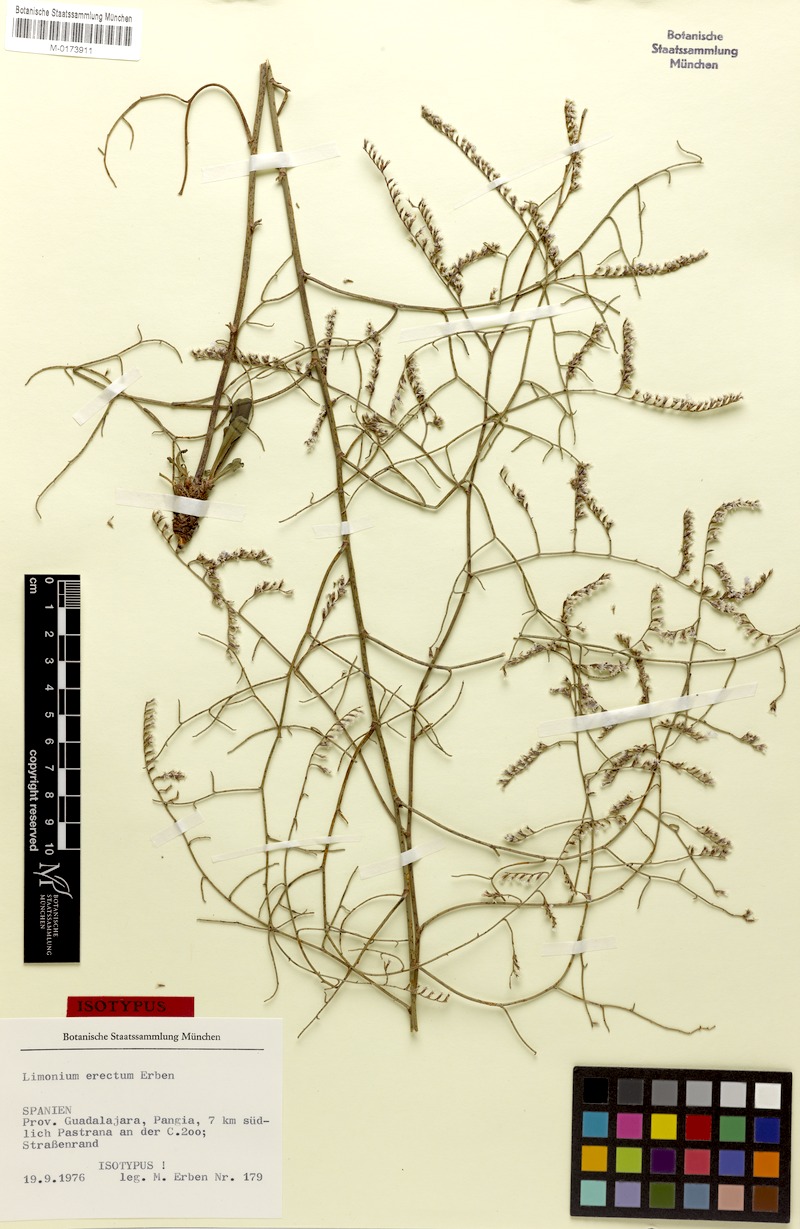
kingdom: Plantae
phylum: Tracheophyta
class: Magnoliopsida
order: Caryophyllales
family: Plumbaginaceae
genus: Limonium
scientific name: Limonium erectum
